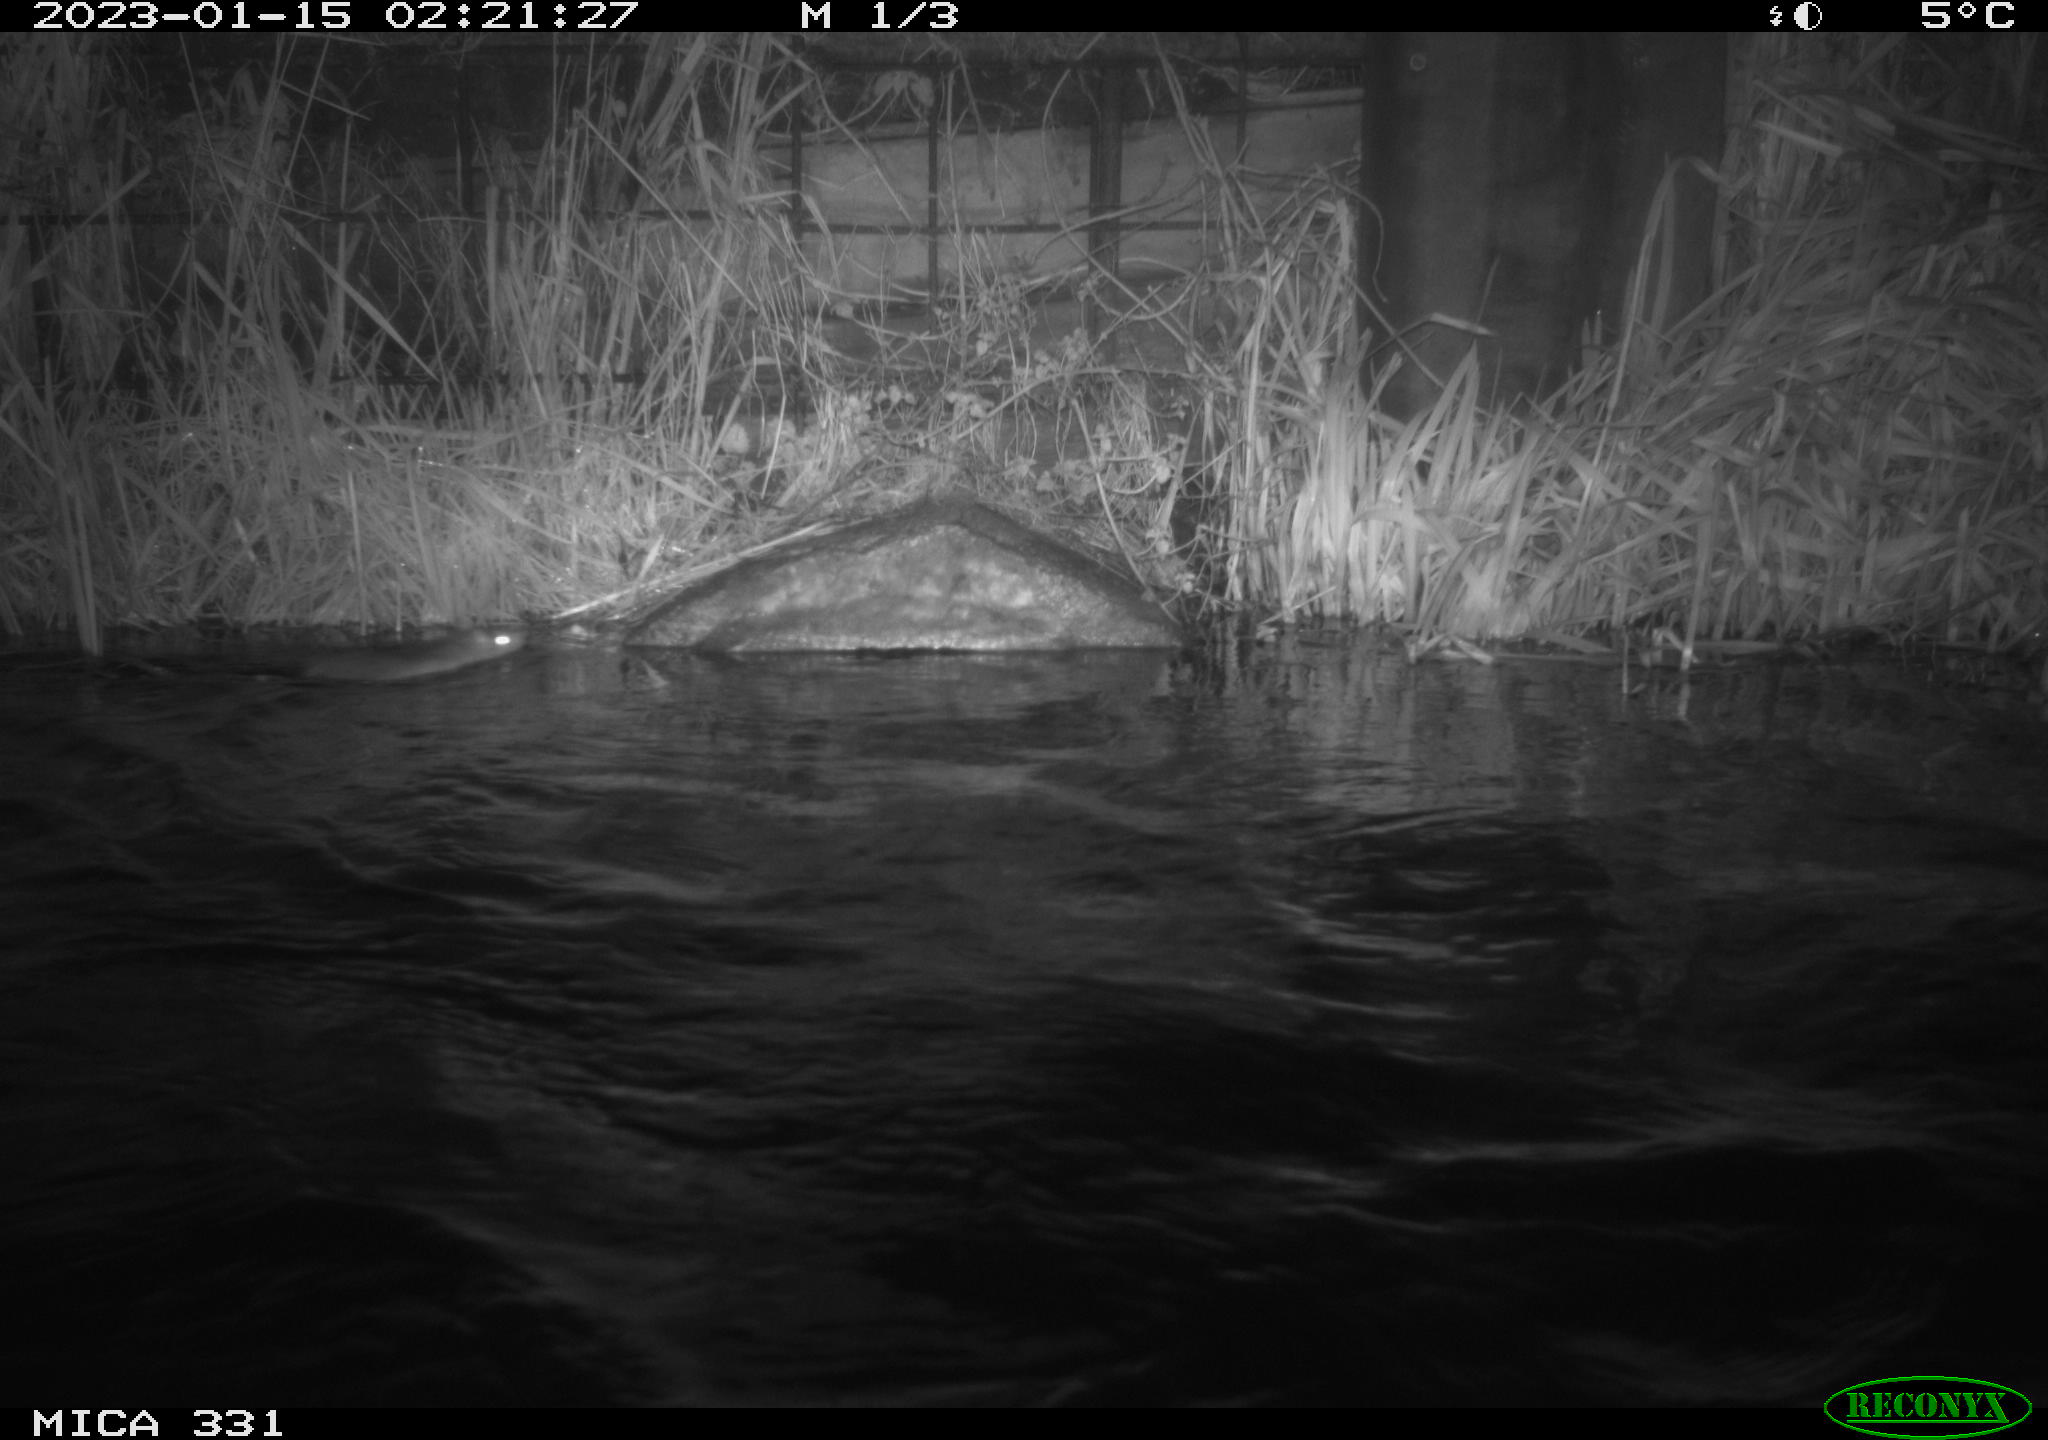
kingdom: Animalia
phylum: Chordata
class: Mammalia
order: Rodentia
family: Muridae
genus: Rattus
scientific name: Rattus norvegicus
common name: Brown rat
